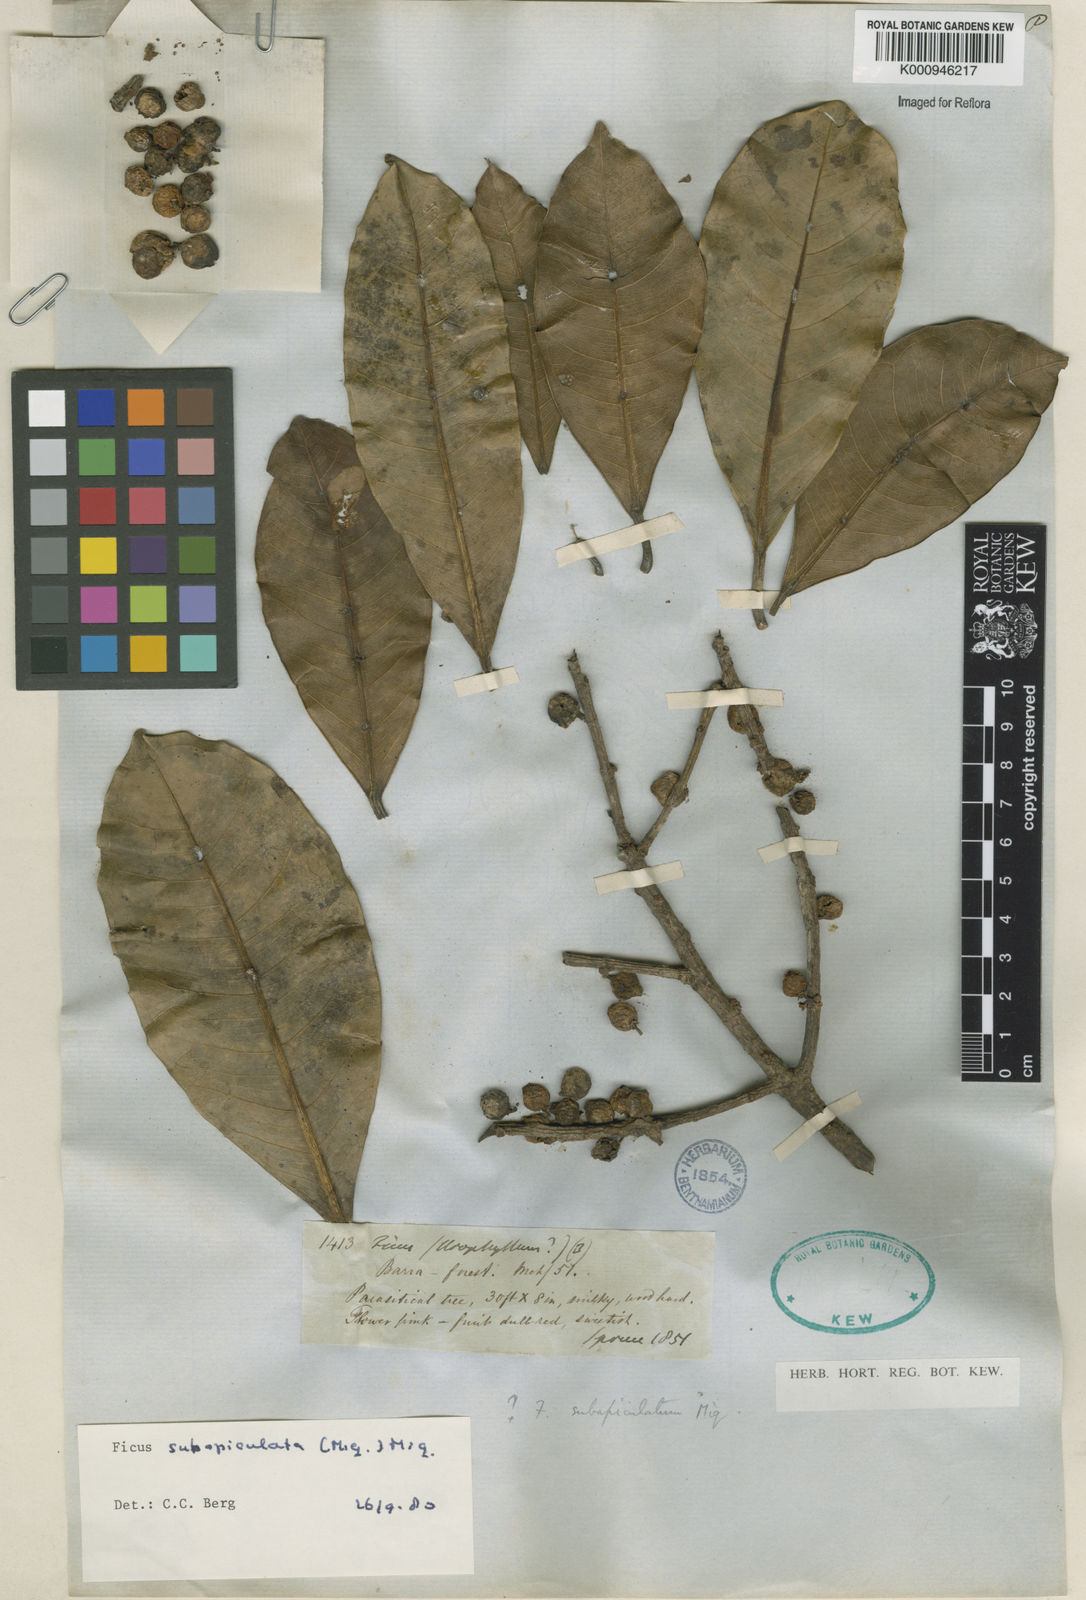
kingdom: Plantae
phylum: Tracheophyta
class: Magnoliopsida
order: Rosales
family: Moraceae
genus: Ficus
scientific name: Ficus americana
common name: Jamaican cherry fig
